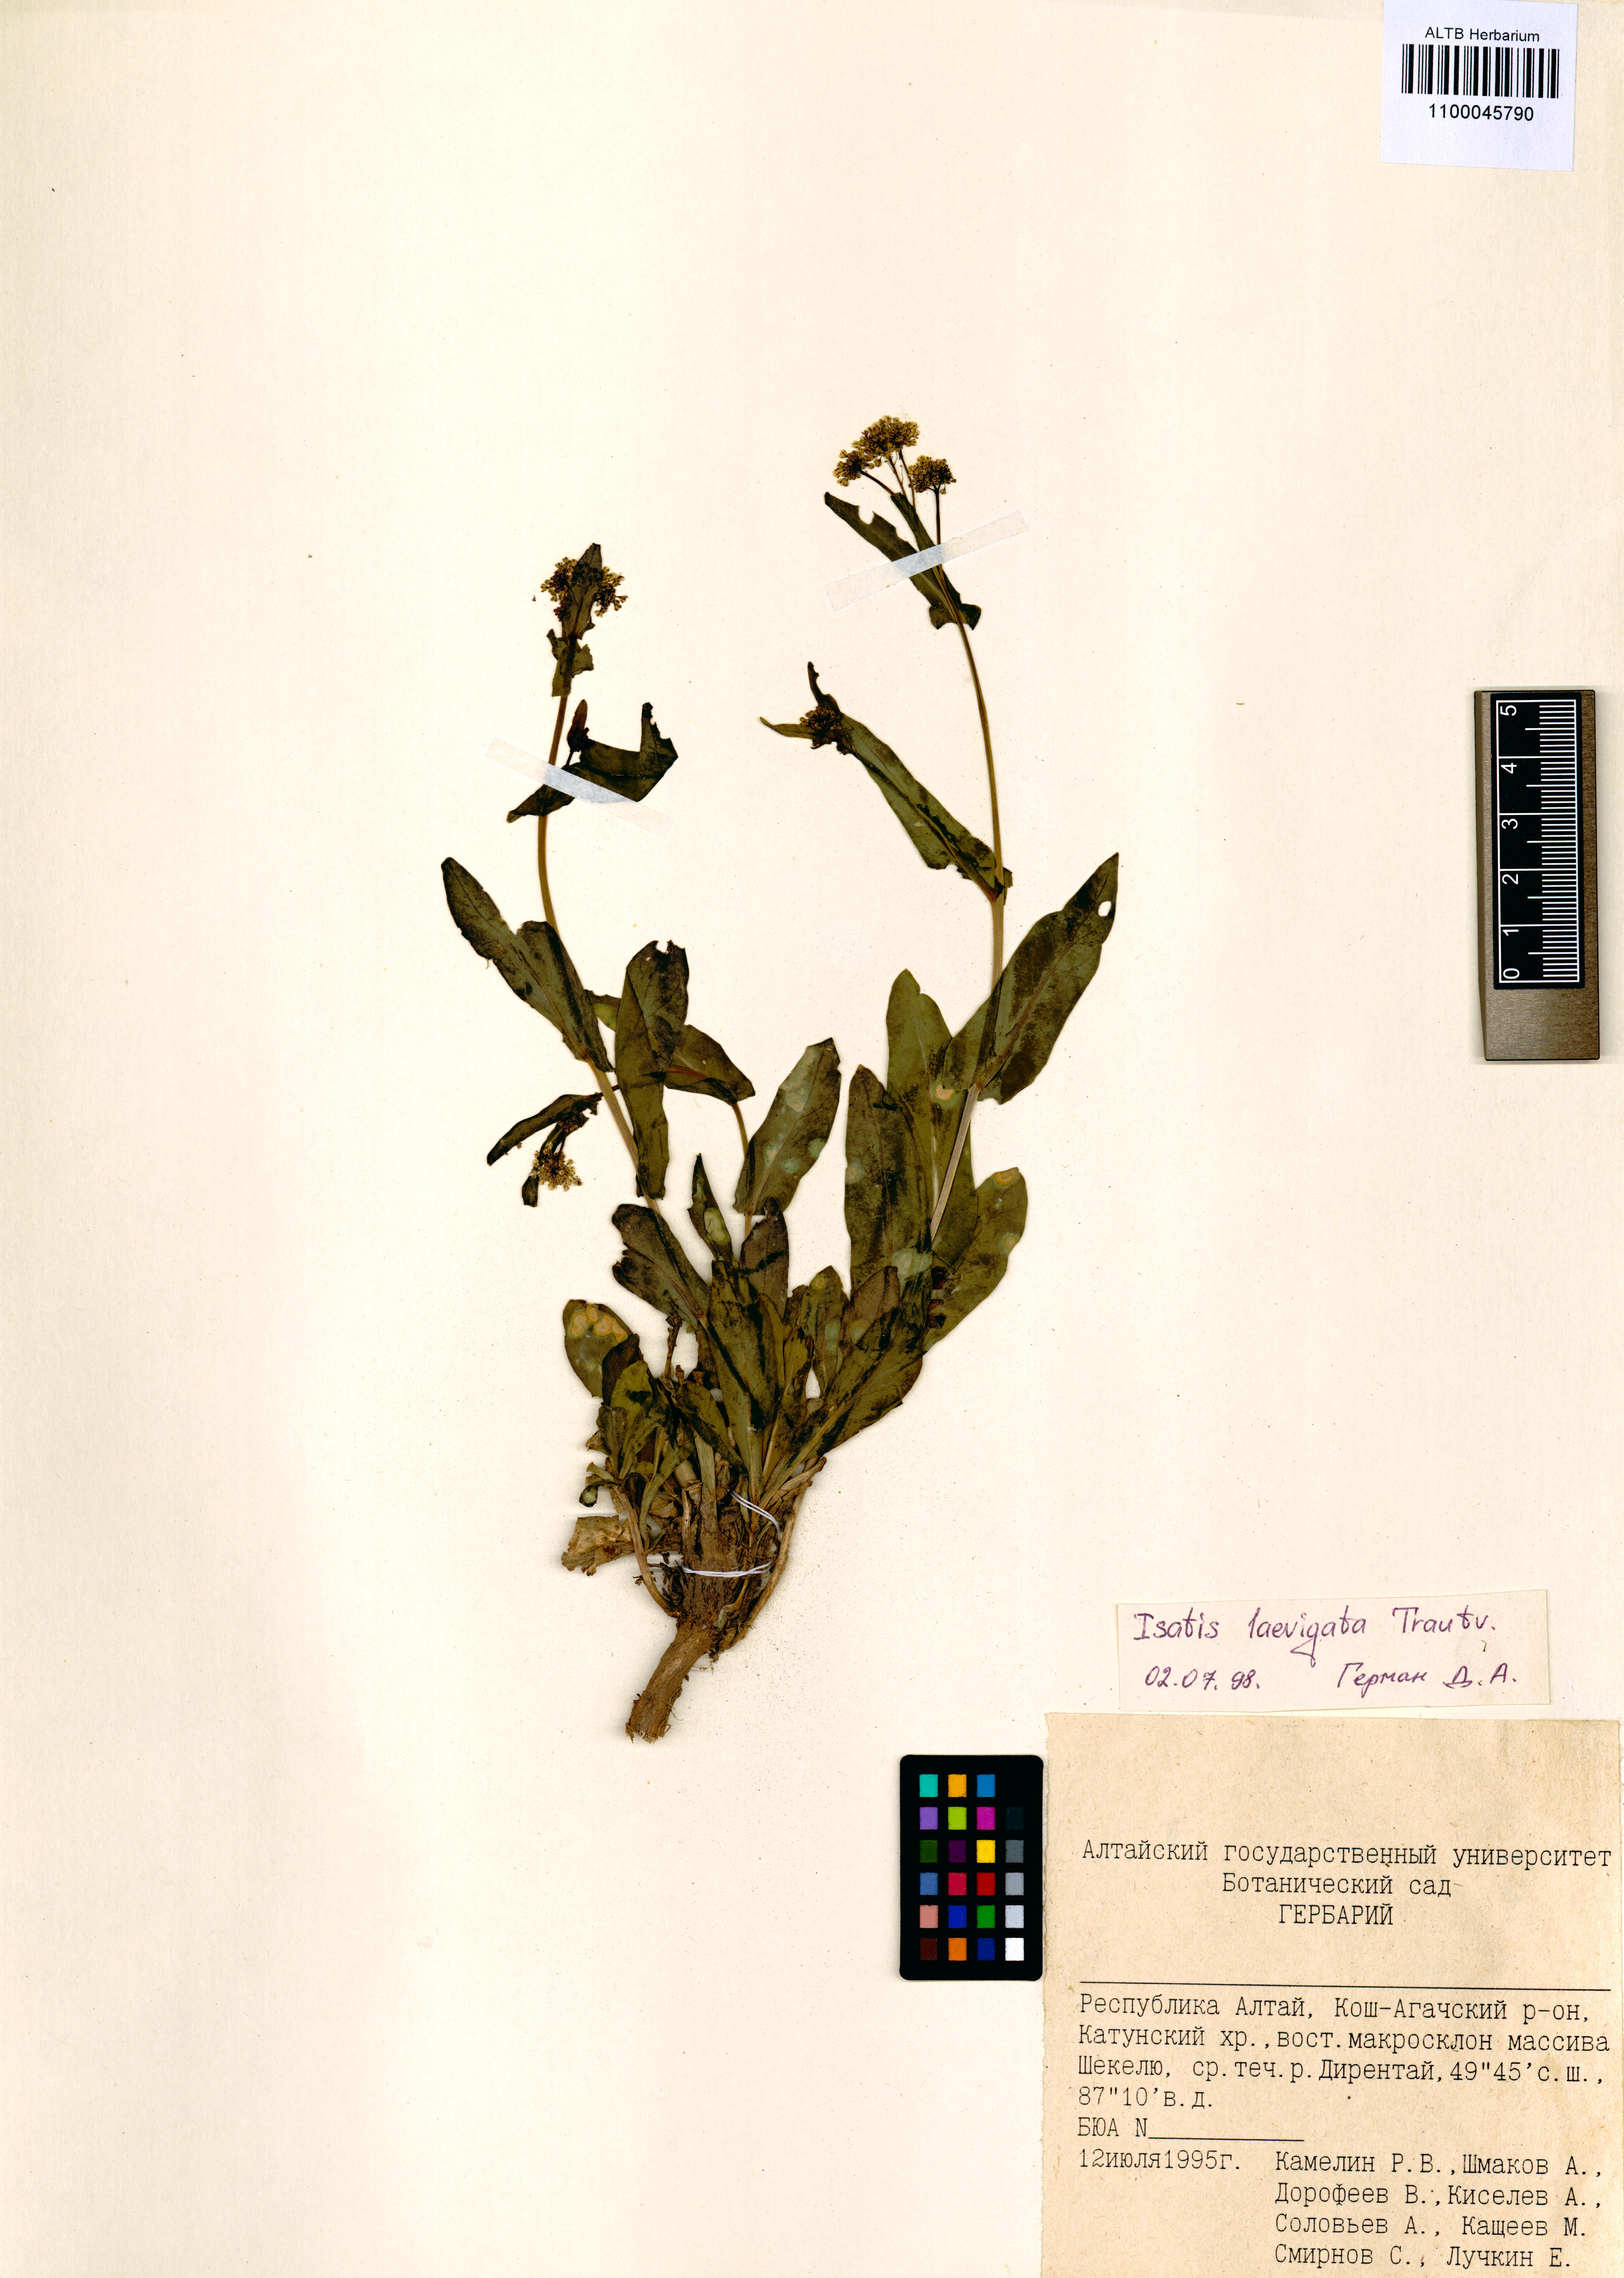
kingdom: Plantae
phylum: Tracheophyta
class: Magnoliopsida
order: Brassicales
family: Brassicaceae
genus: Isatis
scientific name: Isatis laevigata
